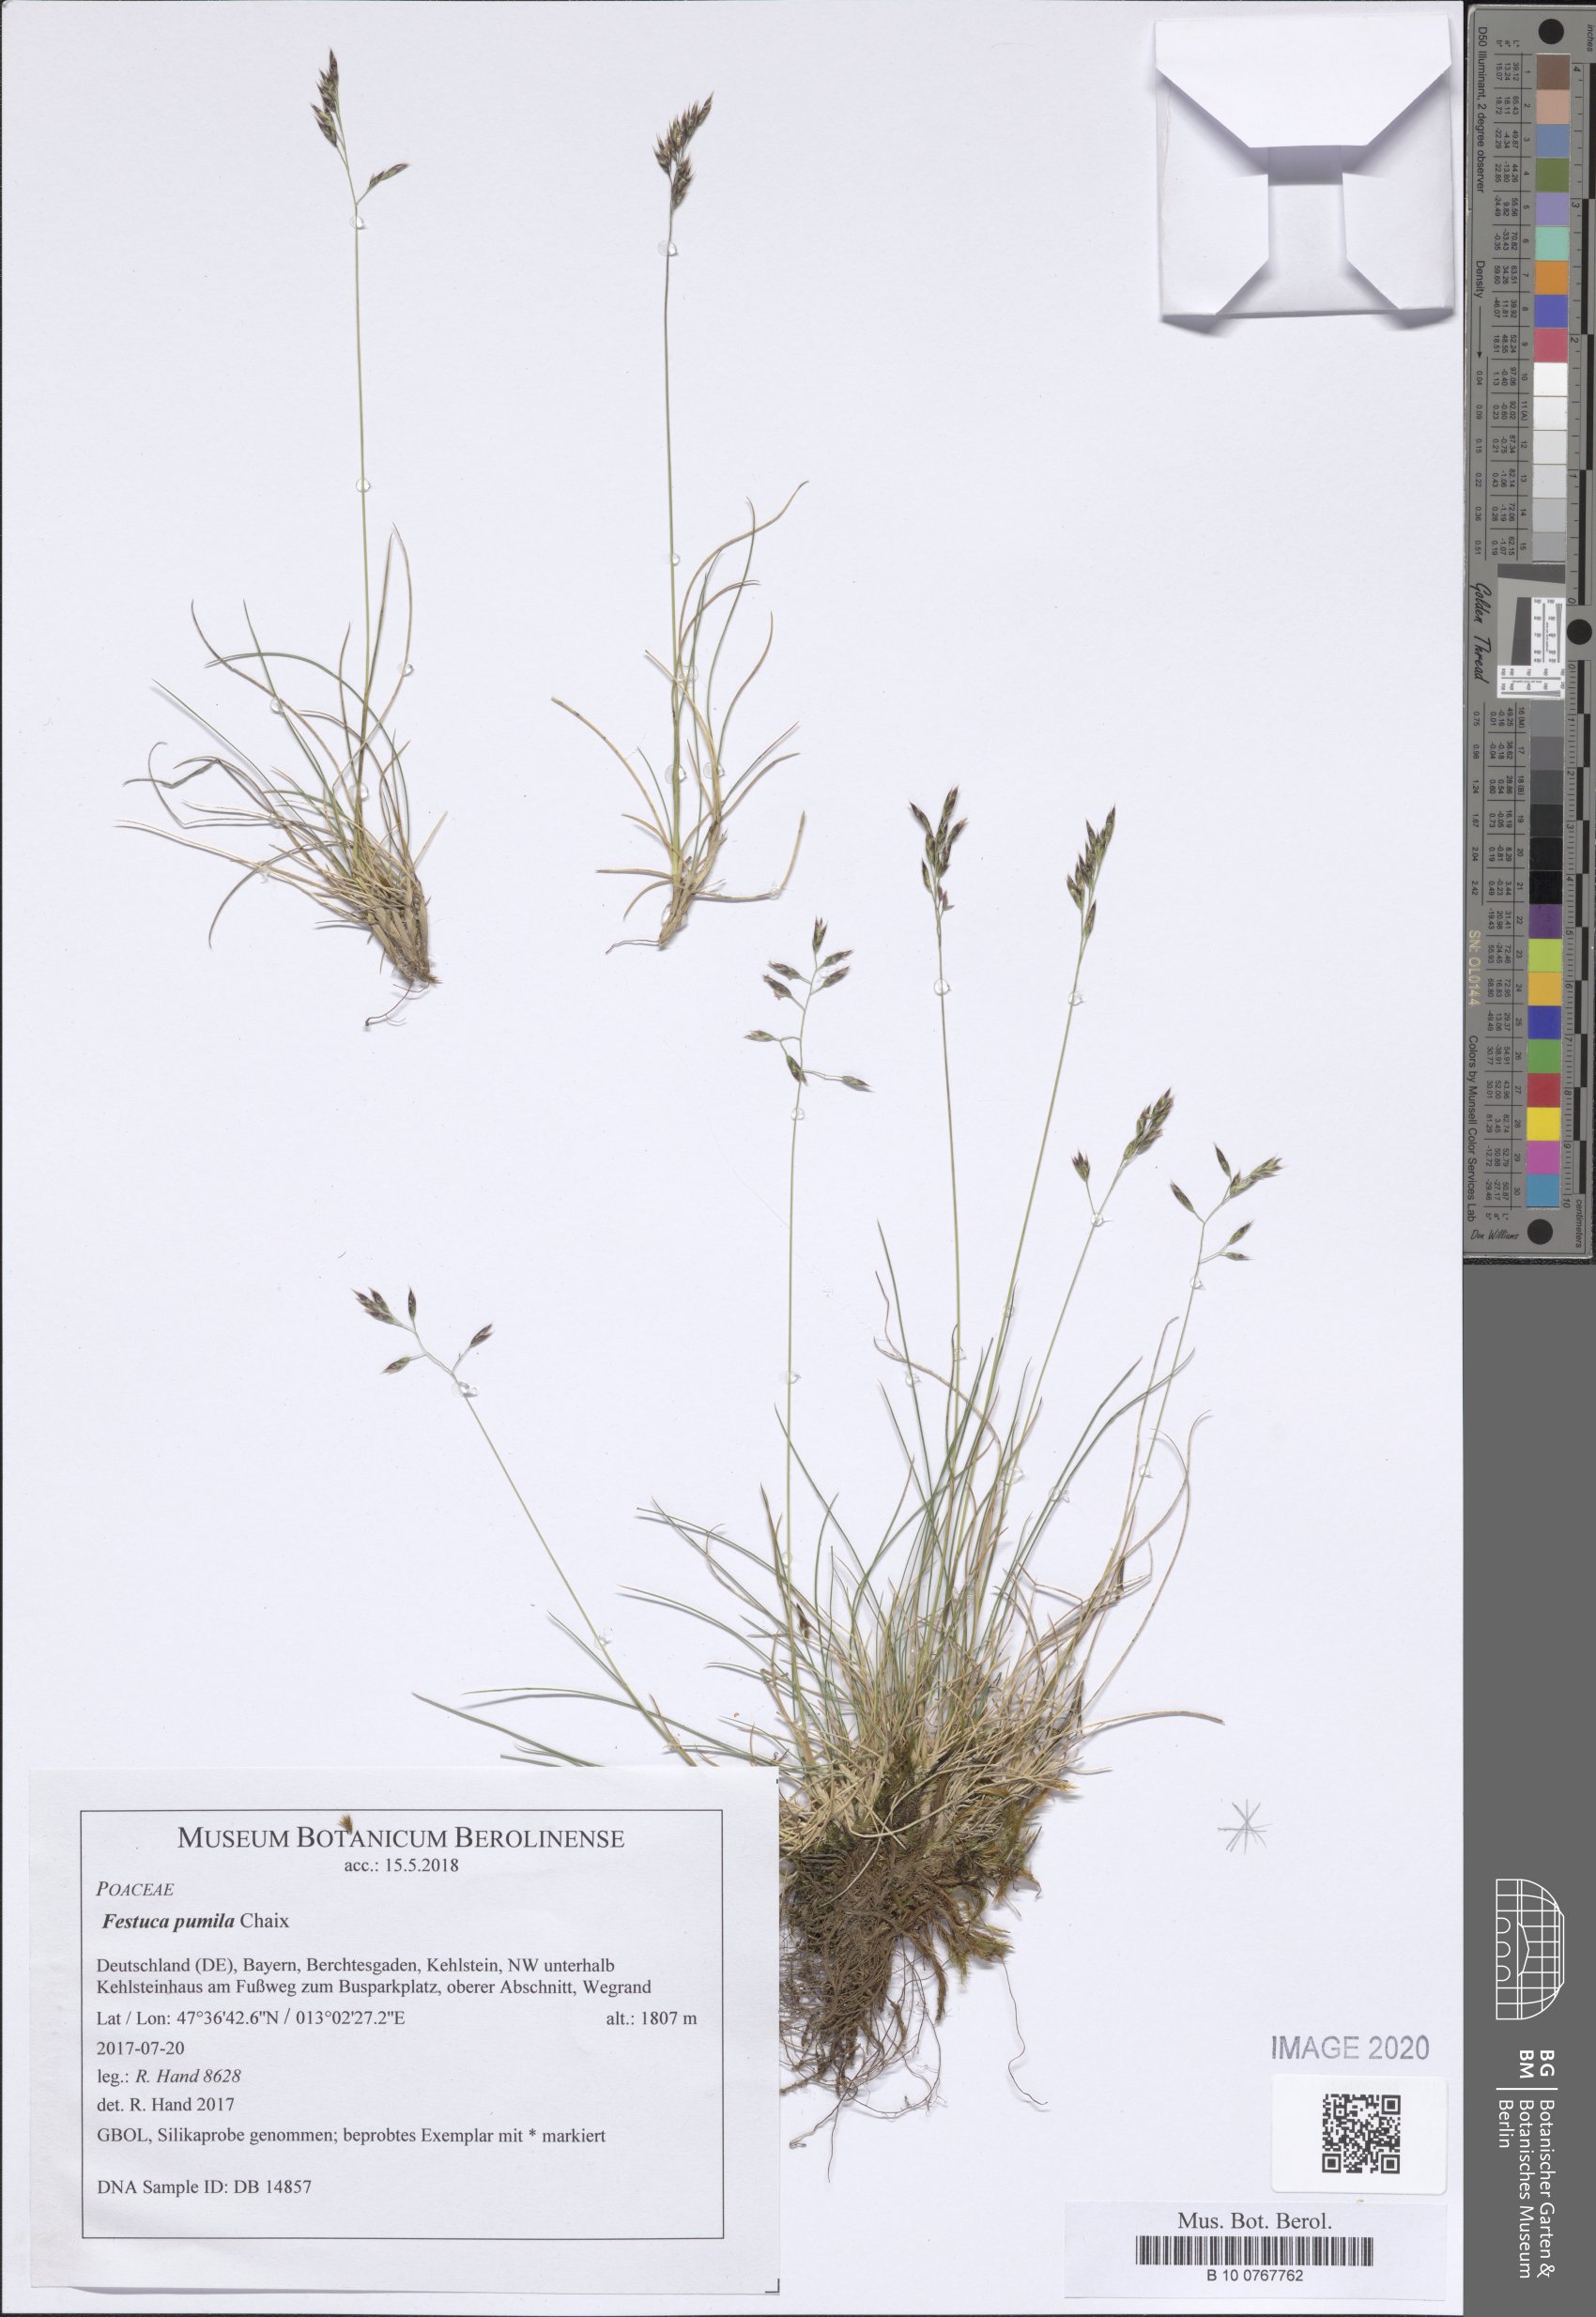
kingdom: Plantae
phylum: Tracheophyta
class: Liliopsida
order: Poales
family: Poaceae
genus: Festuca
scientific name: Festuca quadriflora
